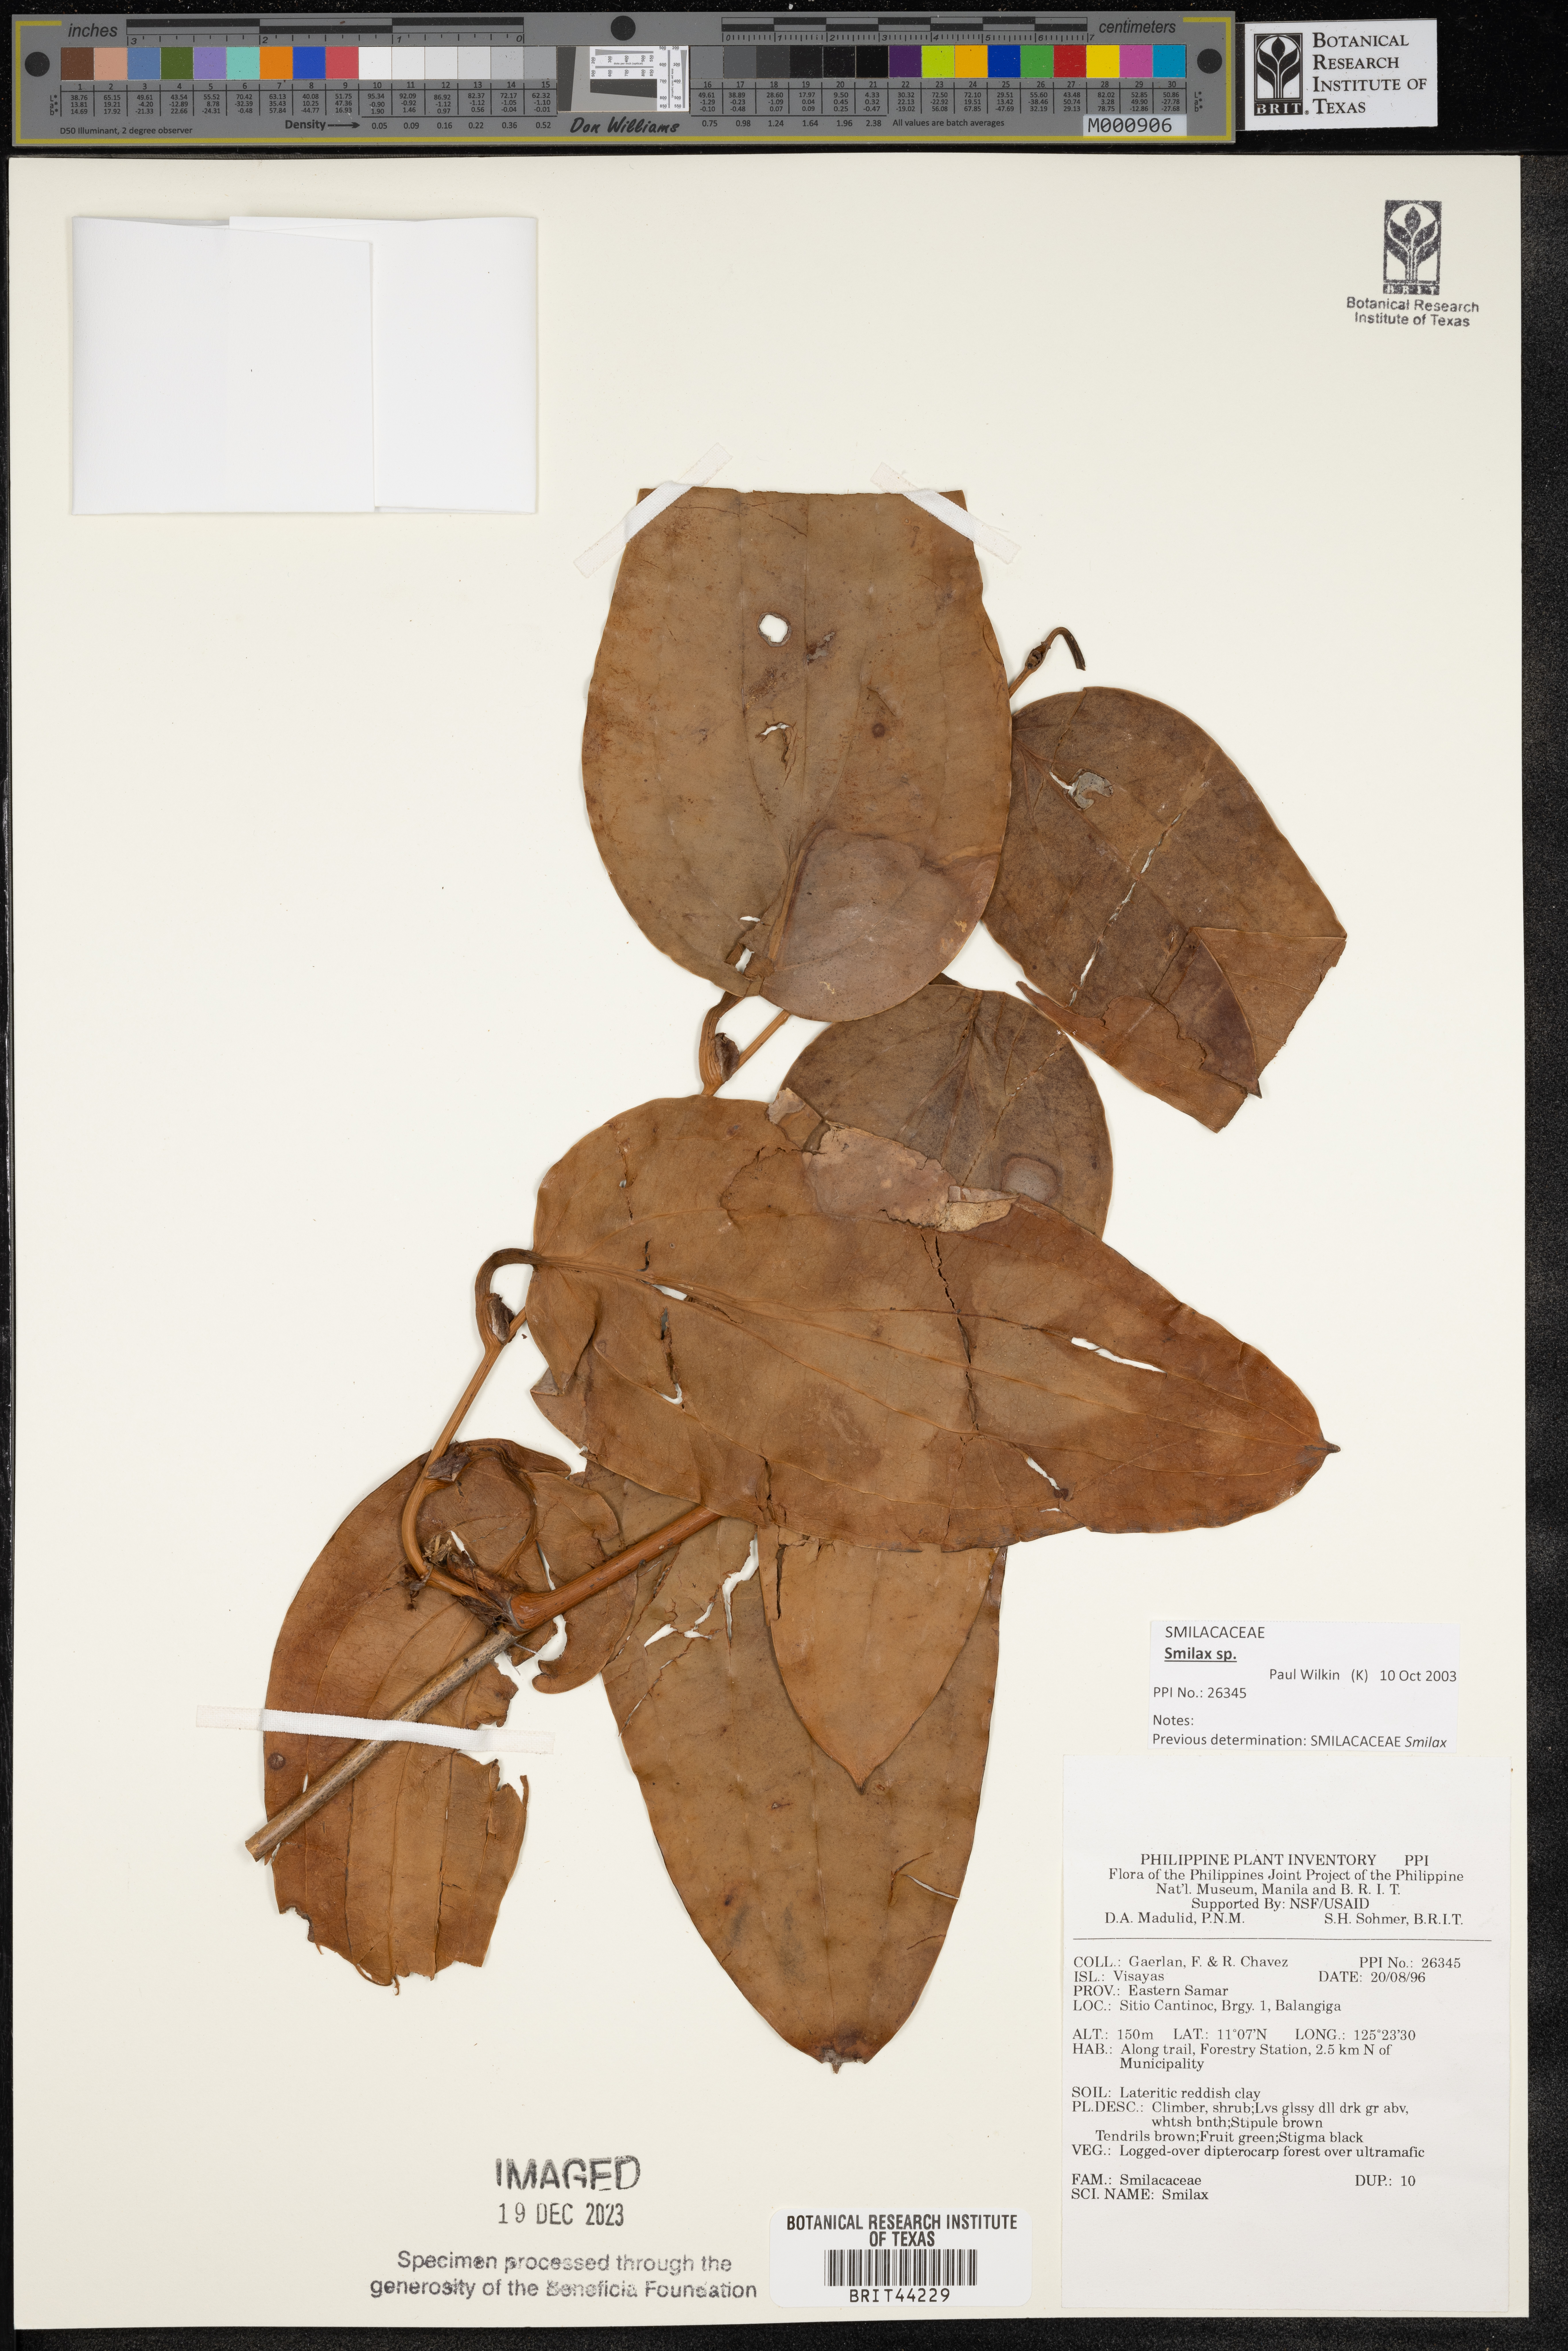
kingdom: Plantae
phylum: Tracheophyta
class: Liliopsida
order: Liliales
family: Smilacaceae
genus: Smilax
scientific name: Smilax
